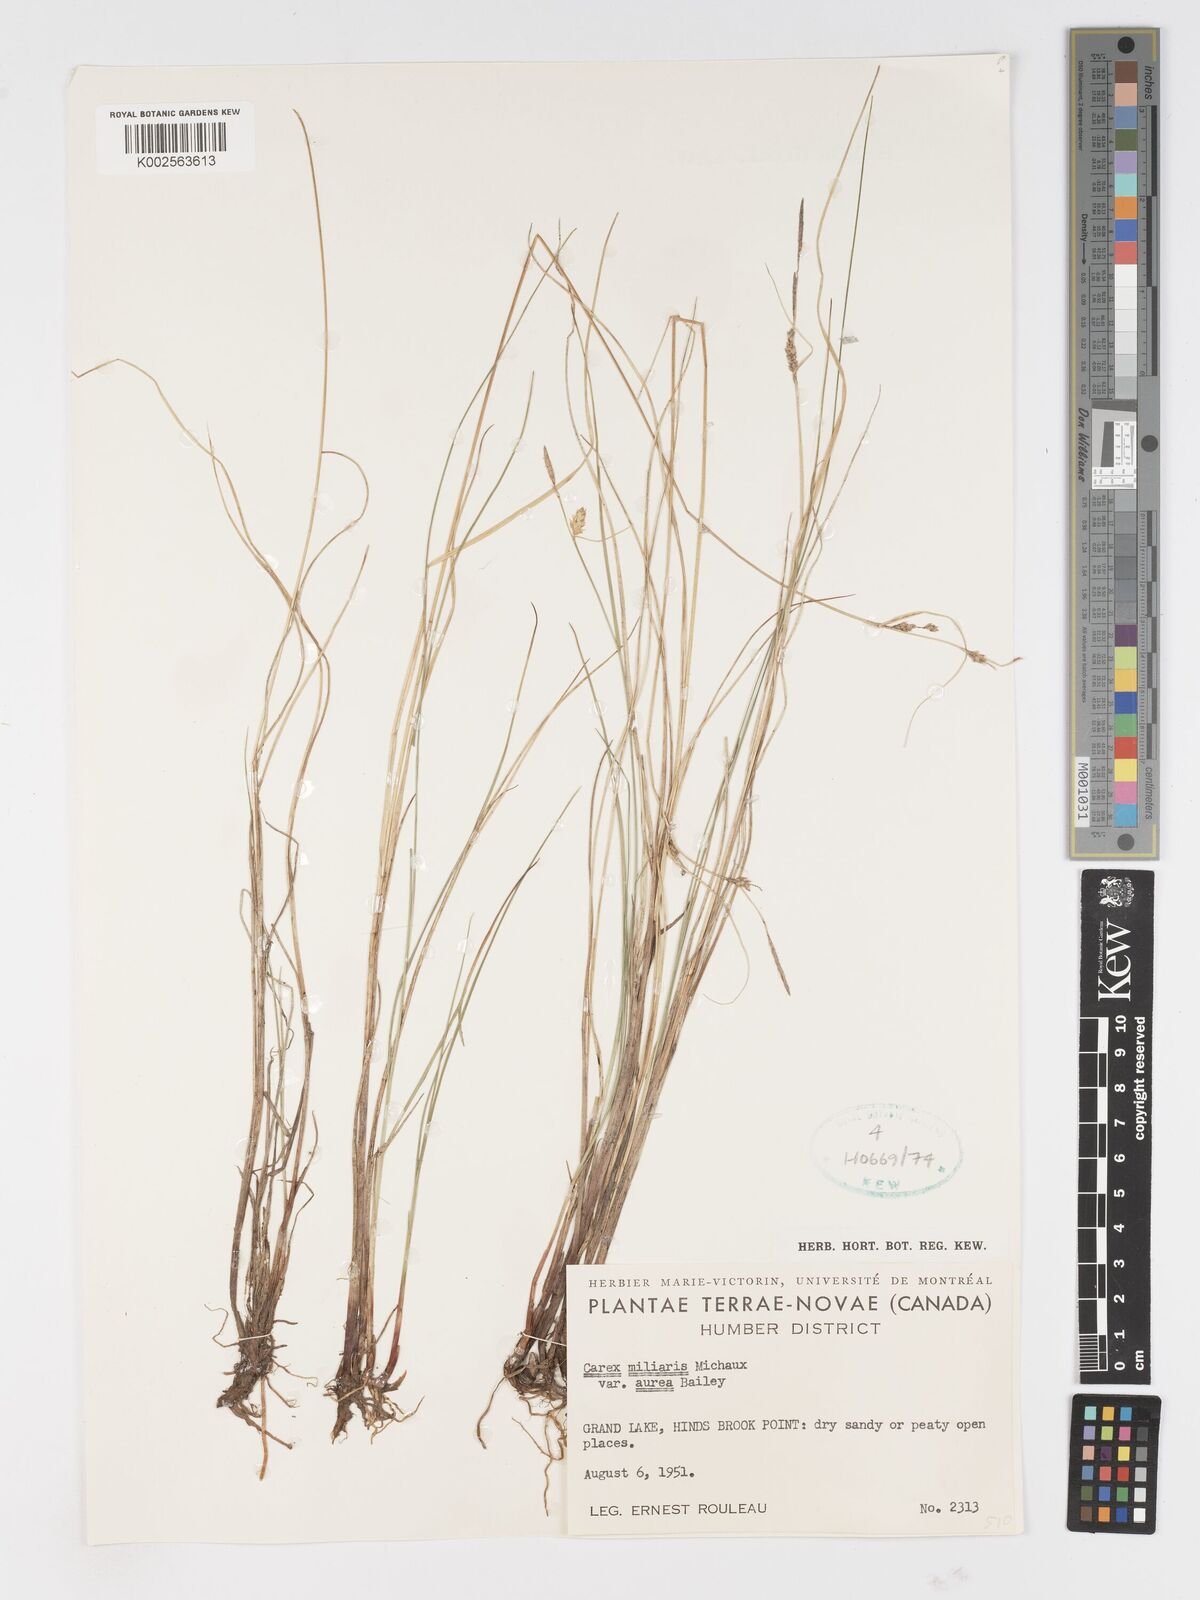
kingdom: Plantae
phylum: Tracheophyta
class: Liliopsida
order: Poales
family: Cyperaceae
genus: Carex
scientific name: Carex miliaris
